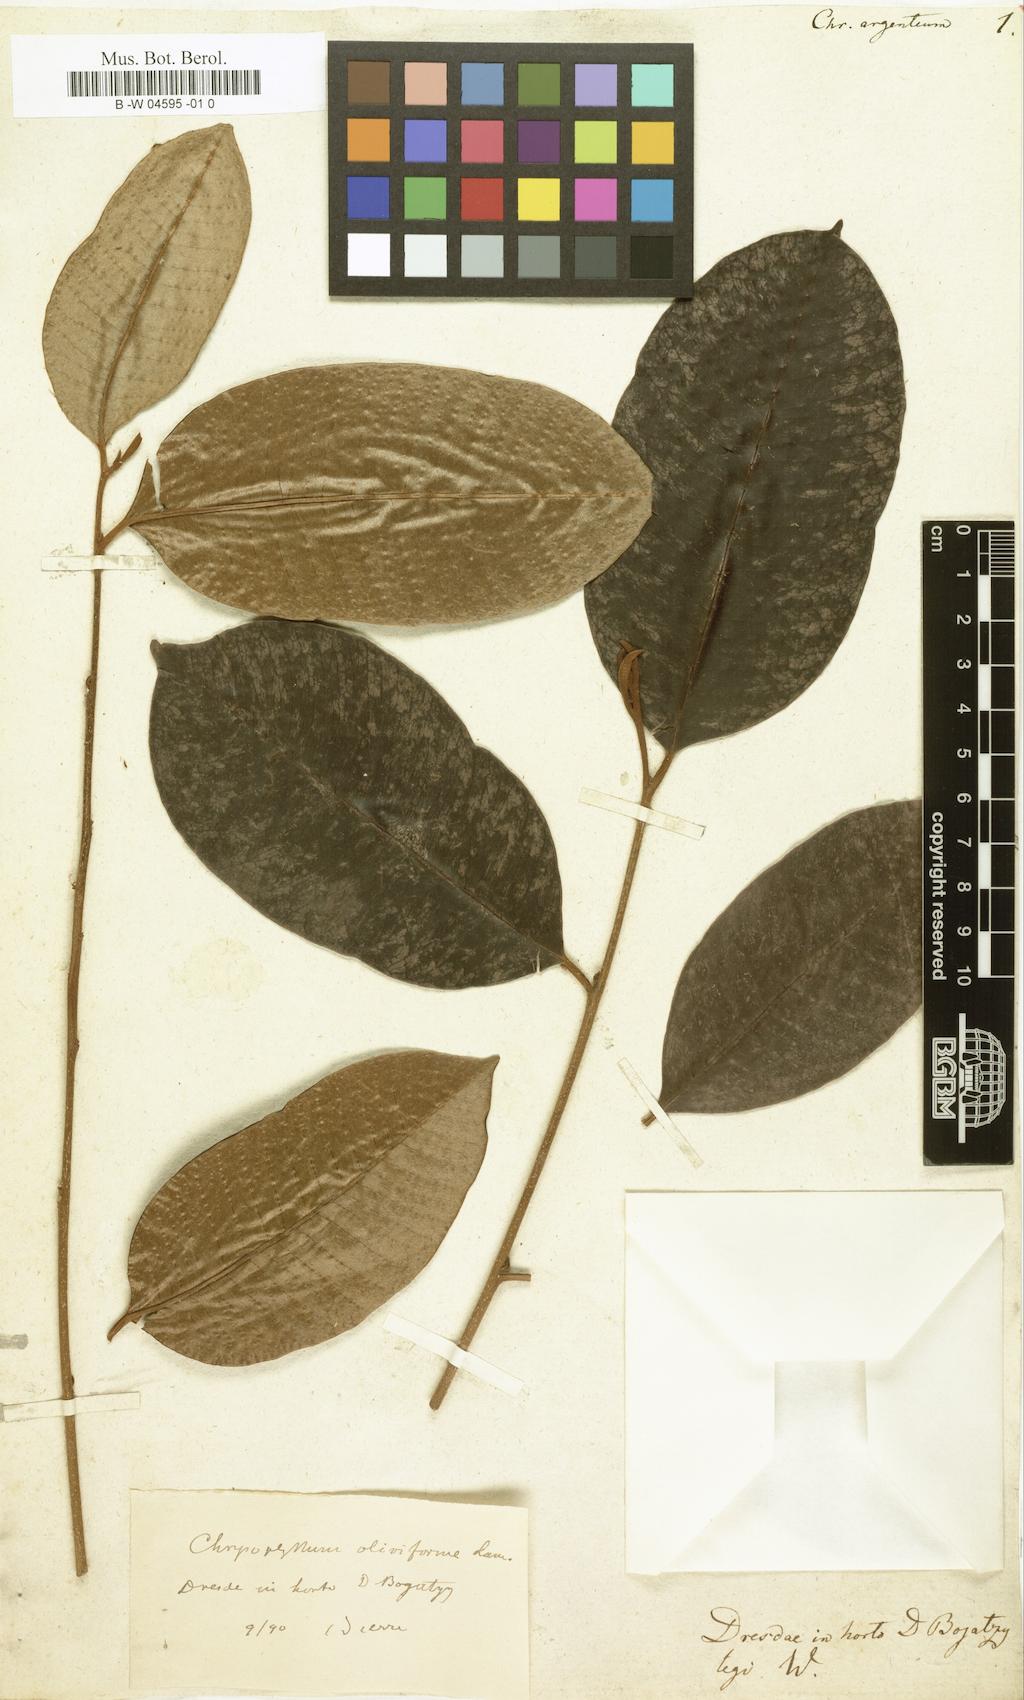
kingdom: Plantae
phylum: Tracheophyta
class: Magnoliopsida
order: Ericales
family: Sapotaceae
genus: Chrysophyllum
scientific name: Chrysophyllum argenteum
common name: Smooth star apple
